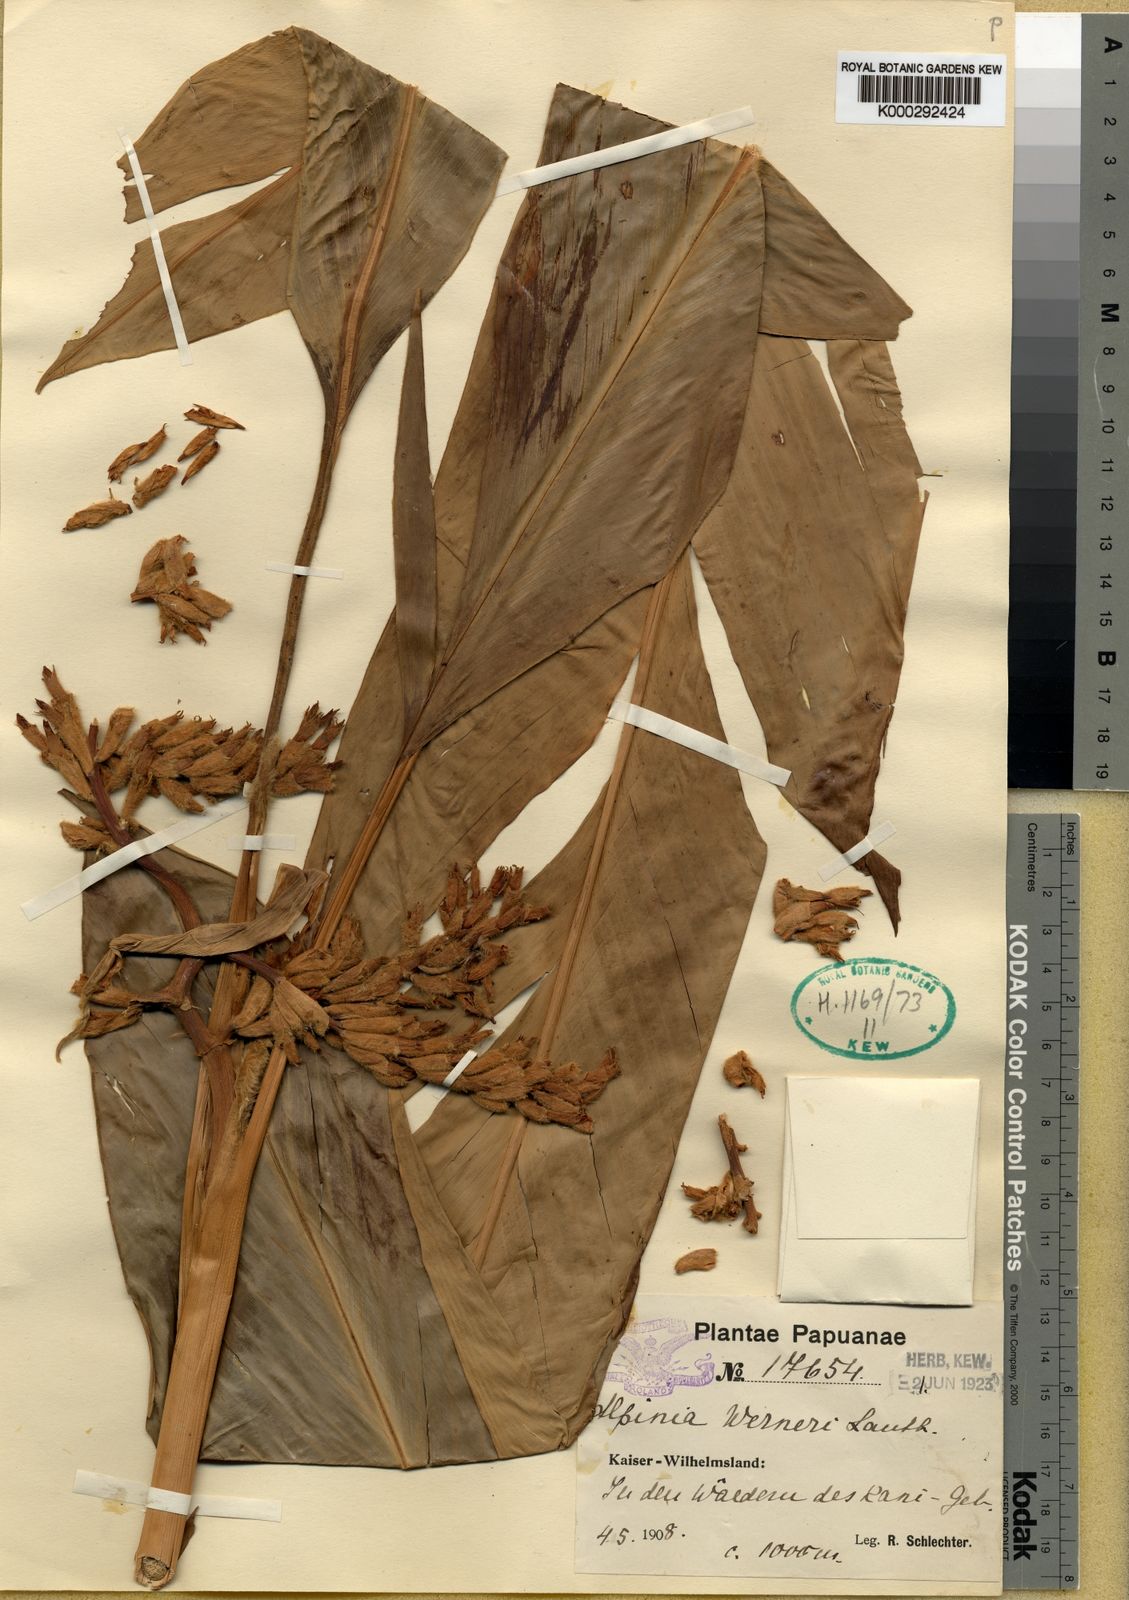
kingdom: Plantae
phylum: Tracheophyta
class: Liliopsida
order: Zingiberales
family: Zingiberaceae
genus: Alpinia
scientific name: Alpinia werneri
